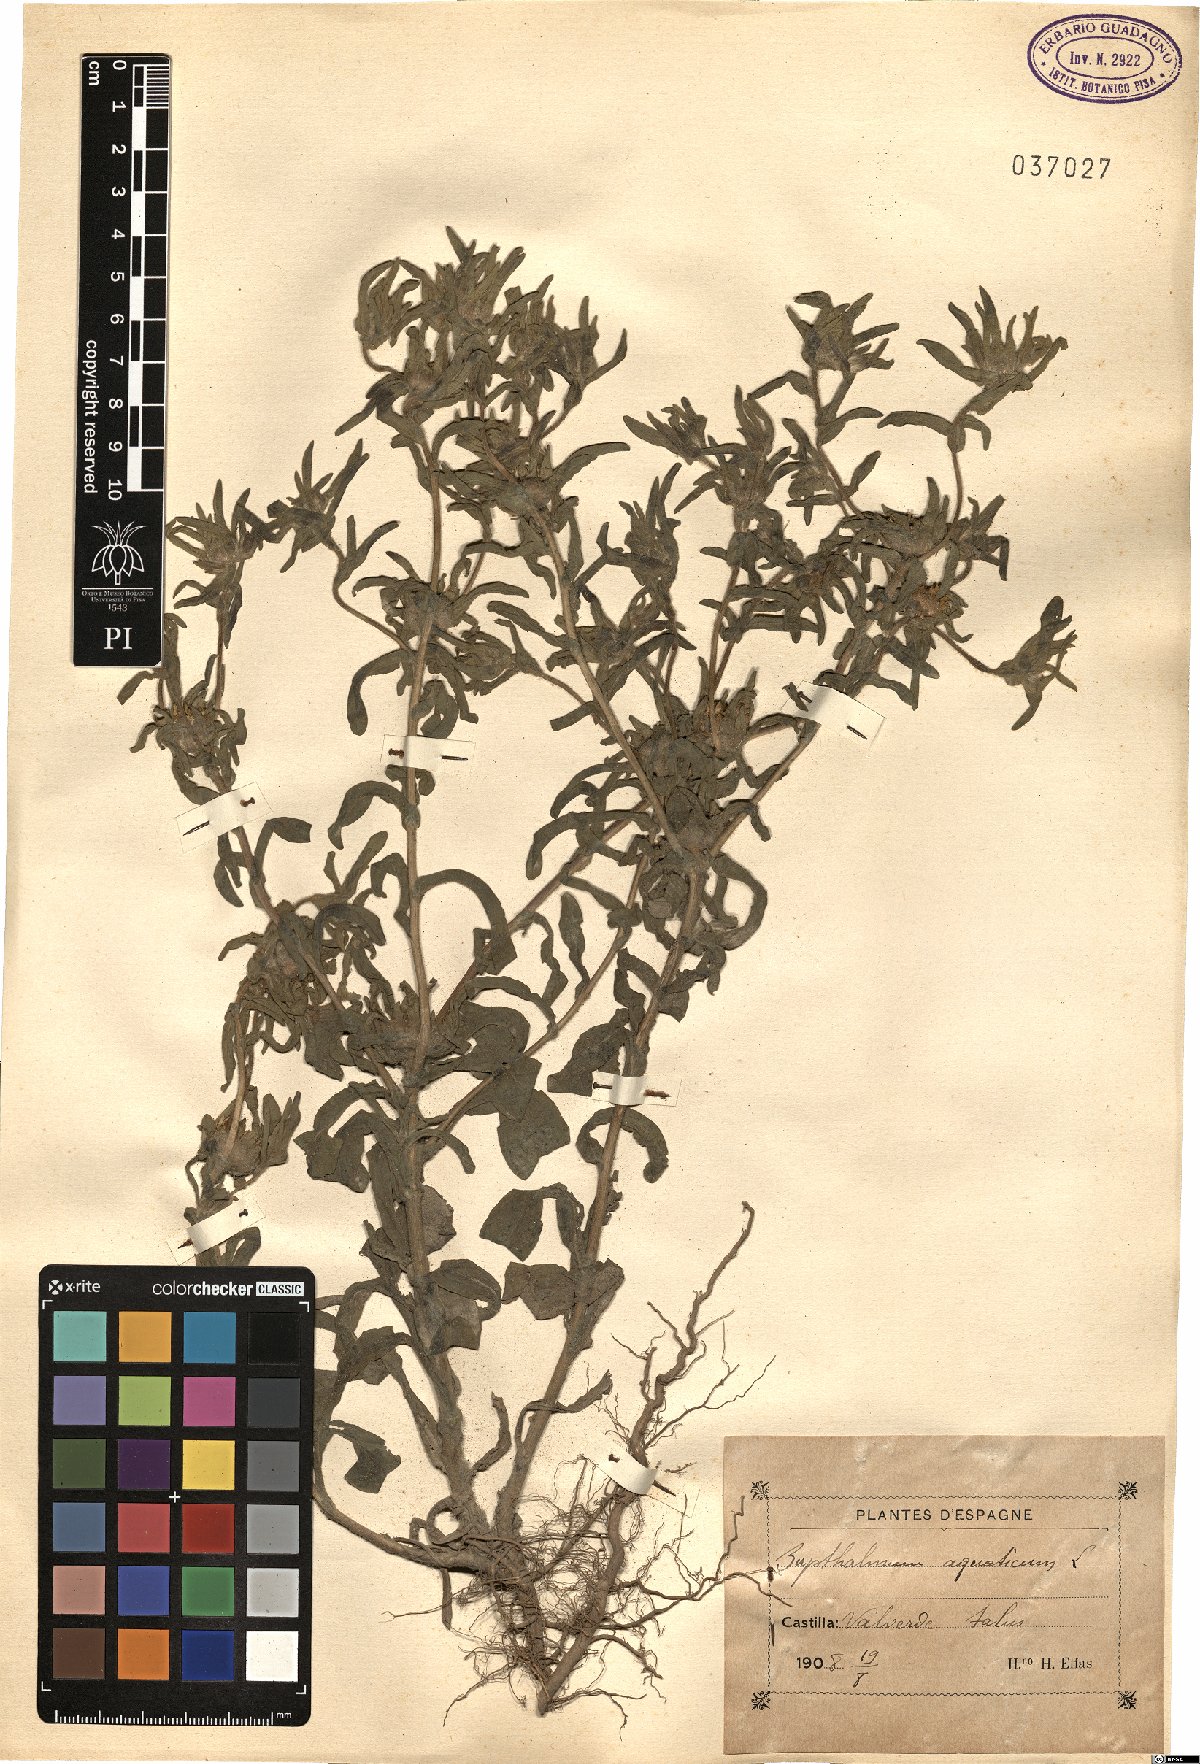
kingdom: Plantae
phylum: Tracheophyta
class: Magnoliopsida
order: Asterales
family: Asteraceae
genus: Asteriscus
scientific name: Asteriscus aquaticus
